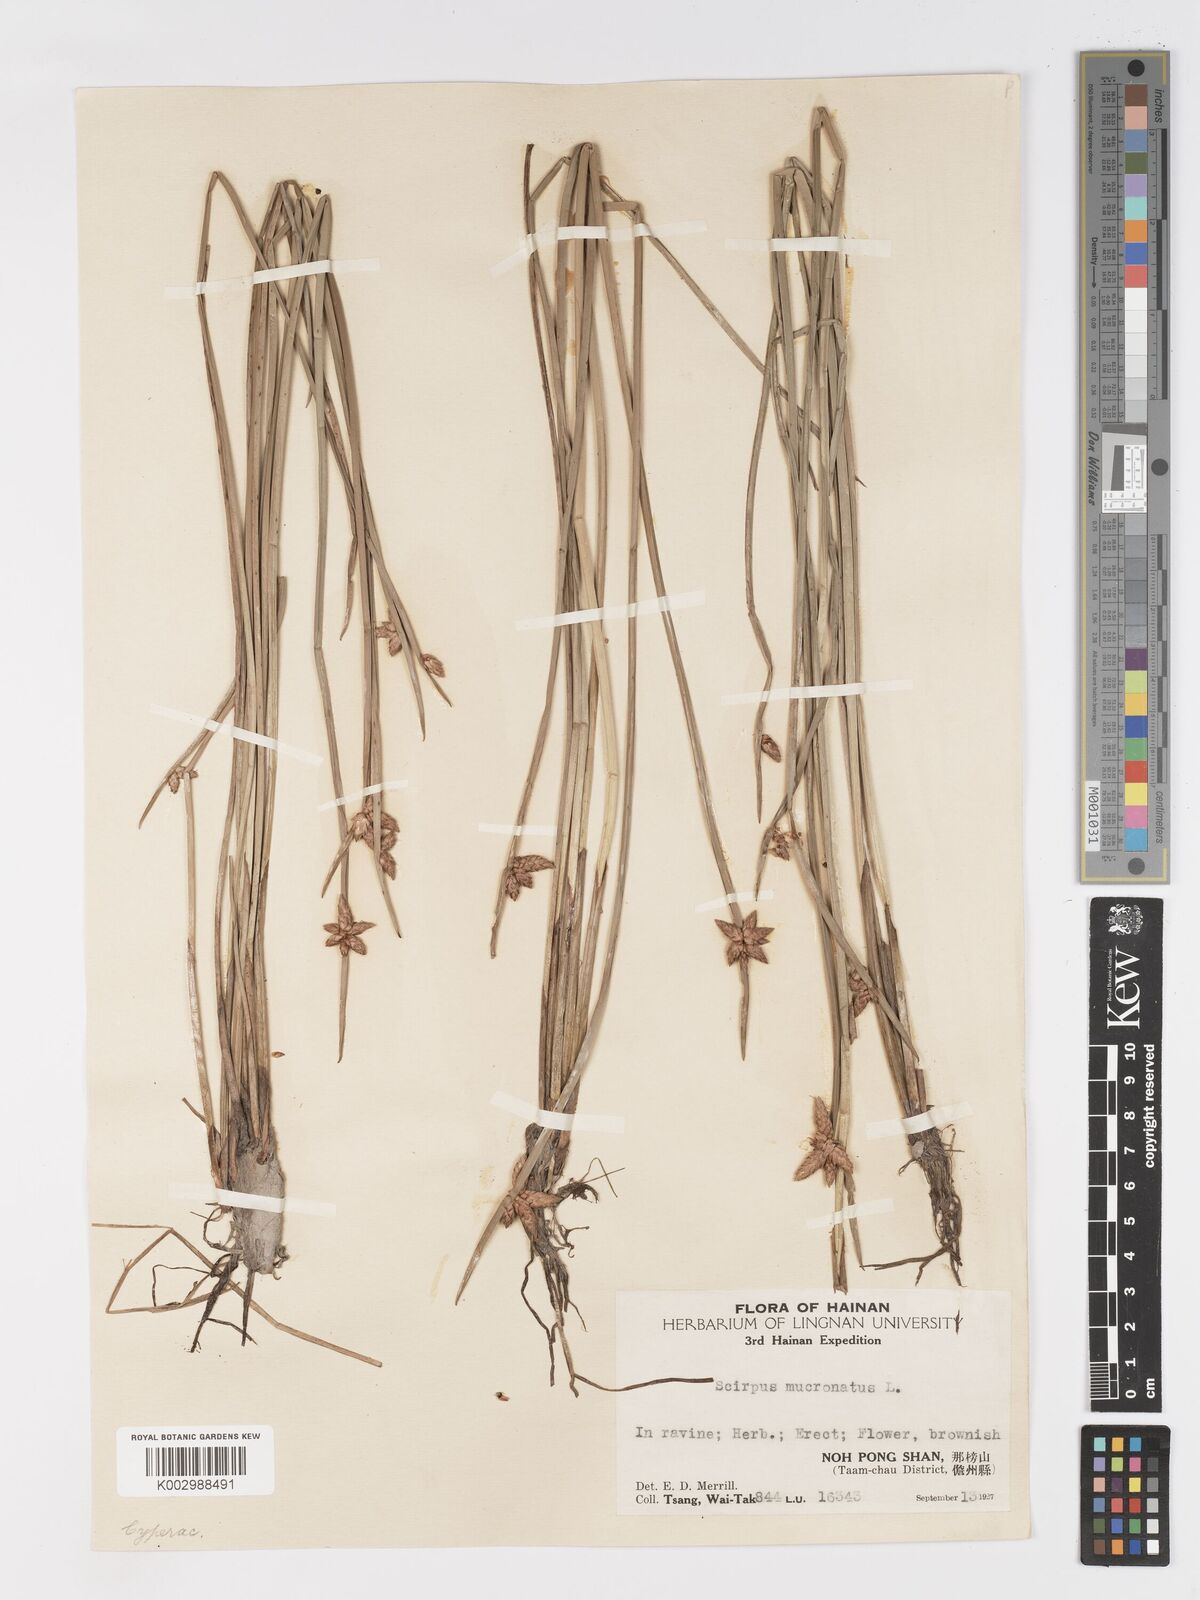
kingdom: Plantae
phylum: Tracheophyta
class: Liliopsida
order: Poales
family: Cyperaceae
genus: Schoenoplectiella
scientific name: Schoenoplectiella mucronata
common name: Bog bulrush
